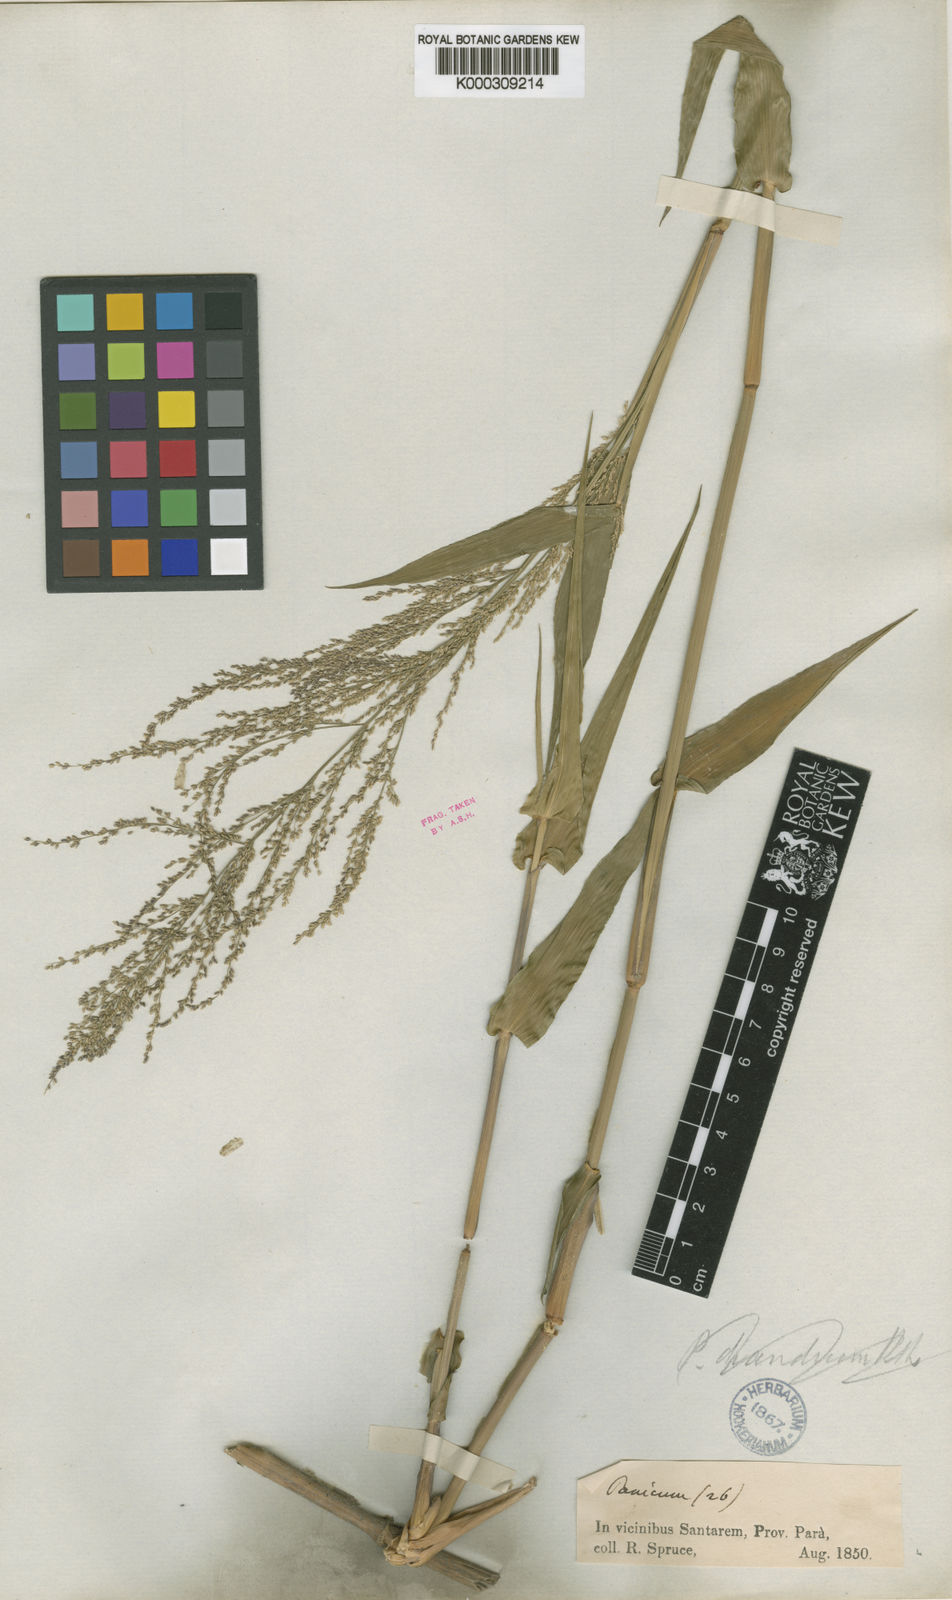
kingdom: Plantae
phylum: Tracheophyta
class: Liliopsida
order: Poales
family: Poaceae
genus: Rugoloa
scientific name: Rugoloa hylaeica
